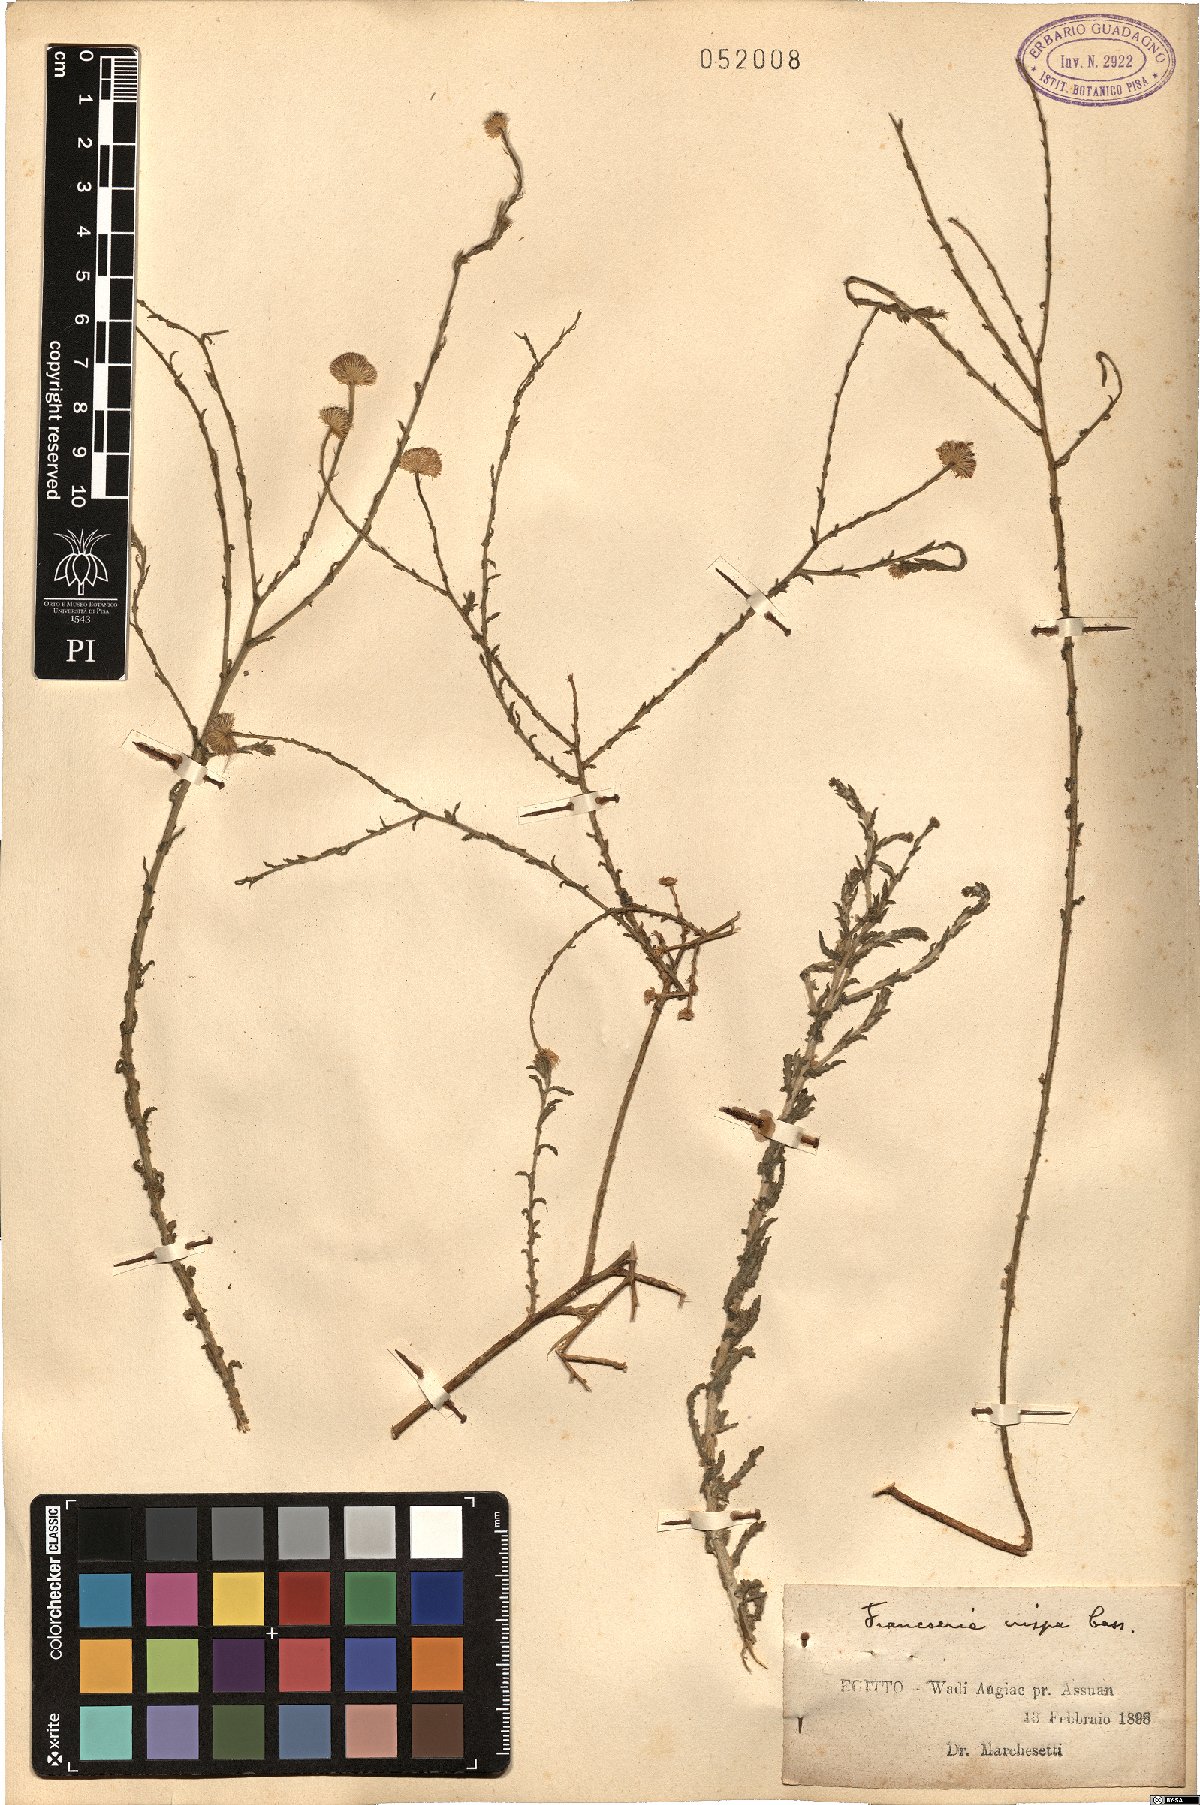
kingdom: Plantae
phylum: Tracheophyta
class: Magnoliopsida
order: Caryophyllales
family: Frankeniaceae
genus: Frankenia
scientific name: Frankenia crispa
